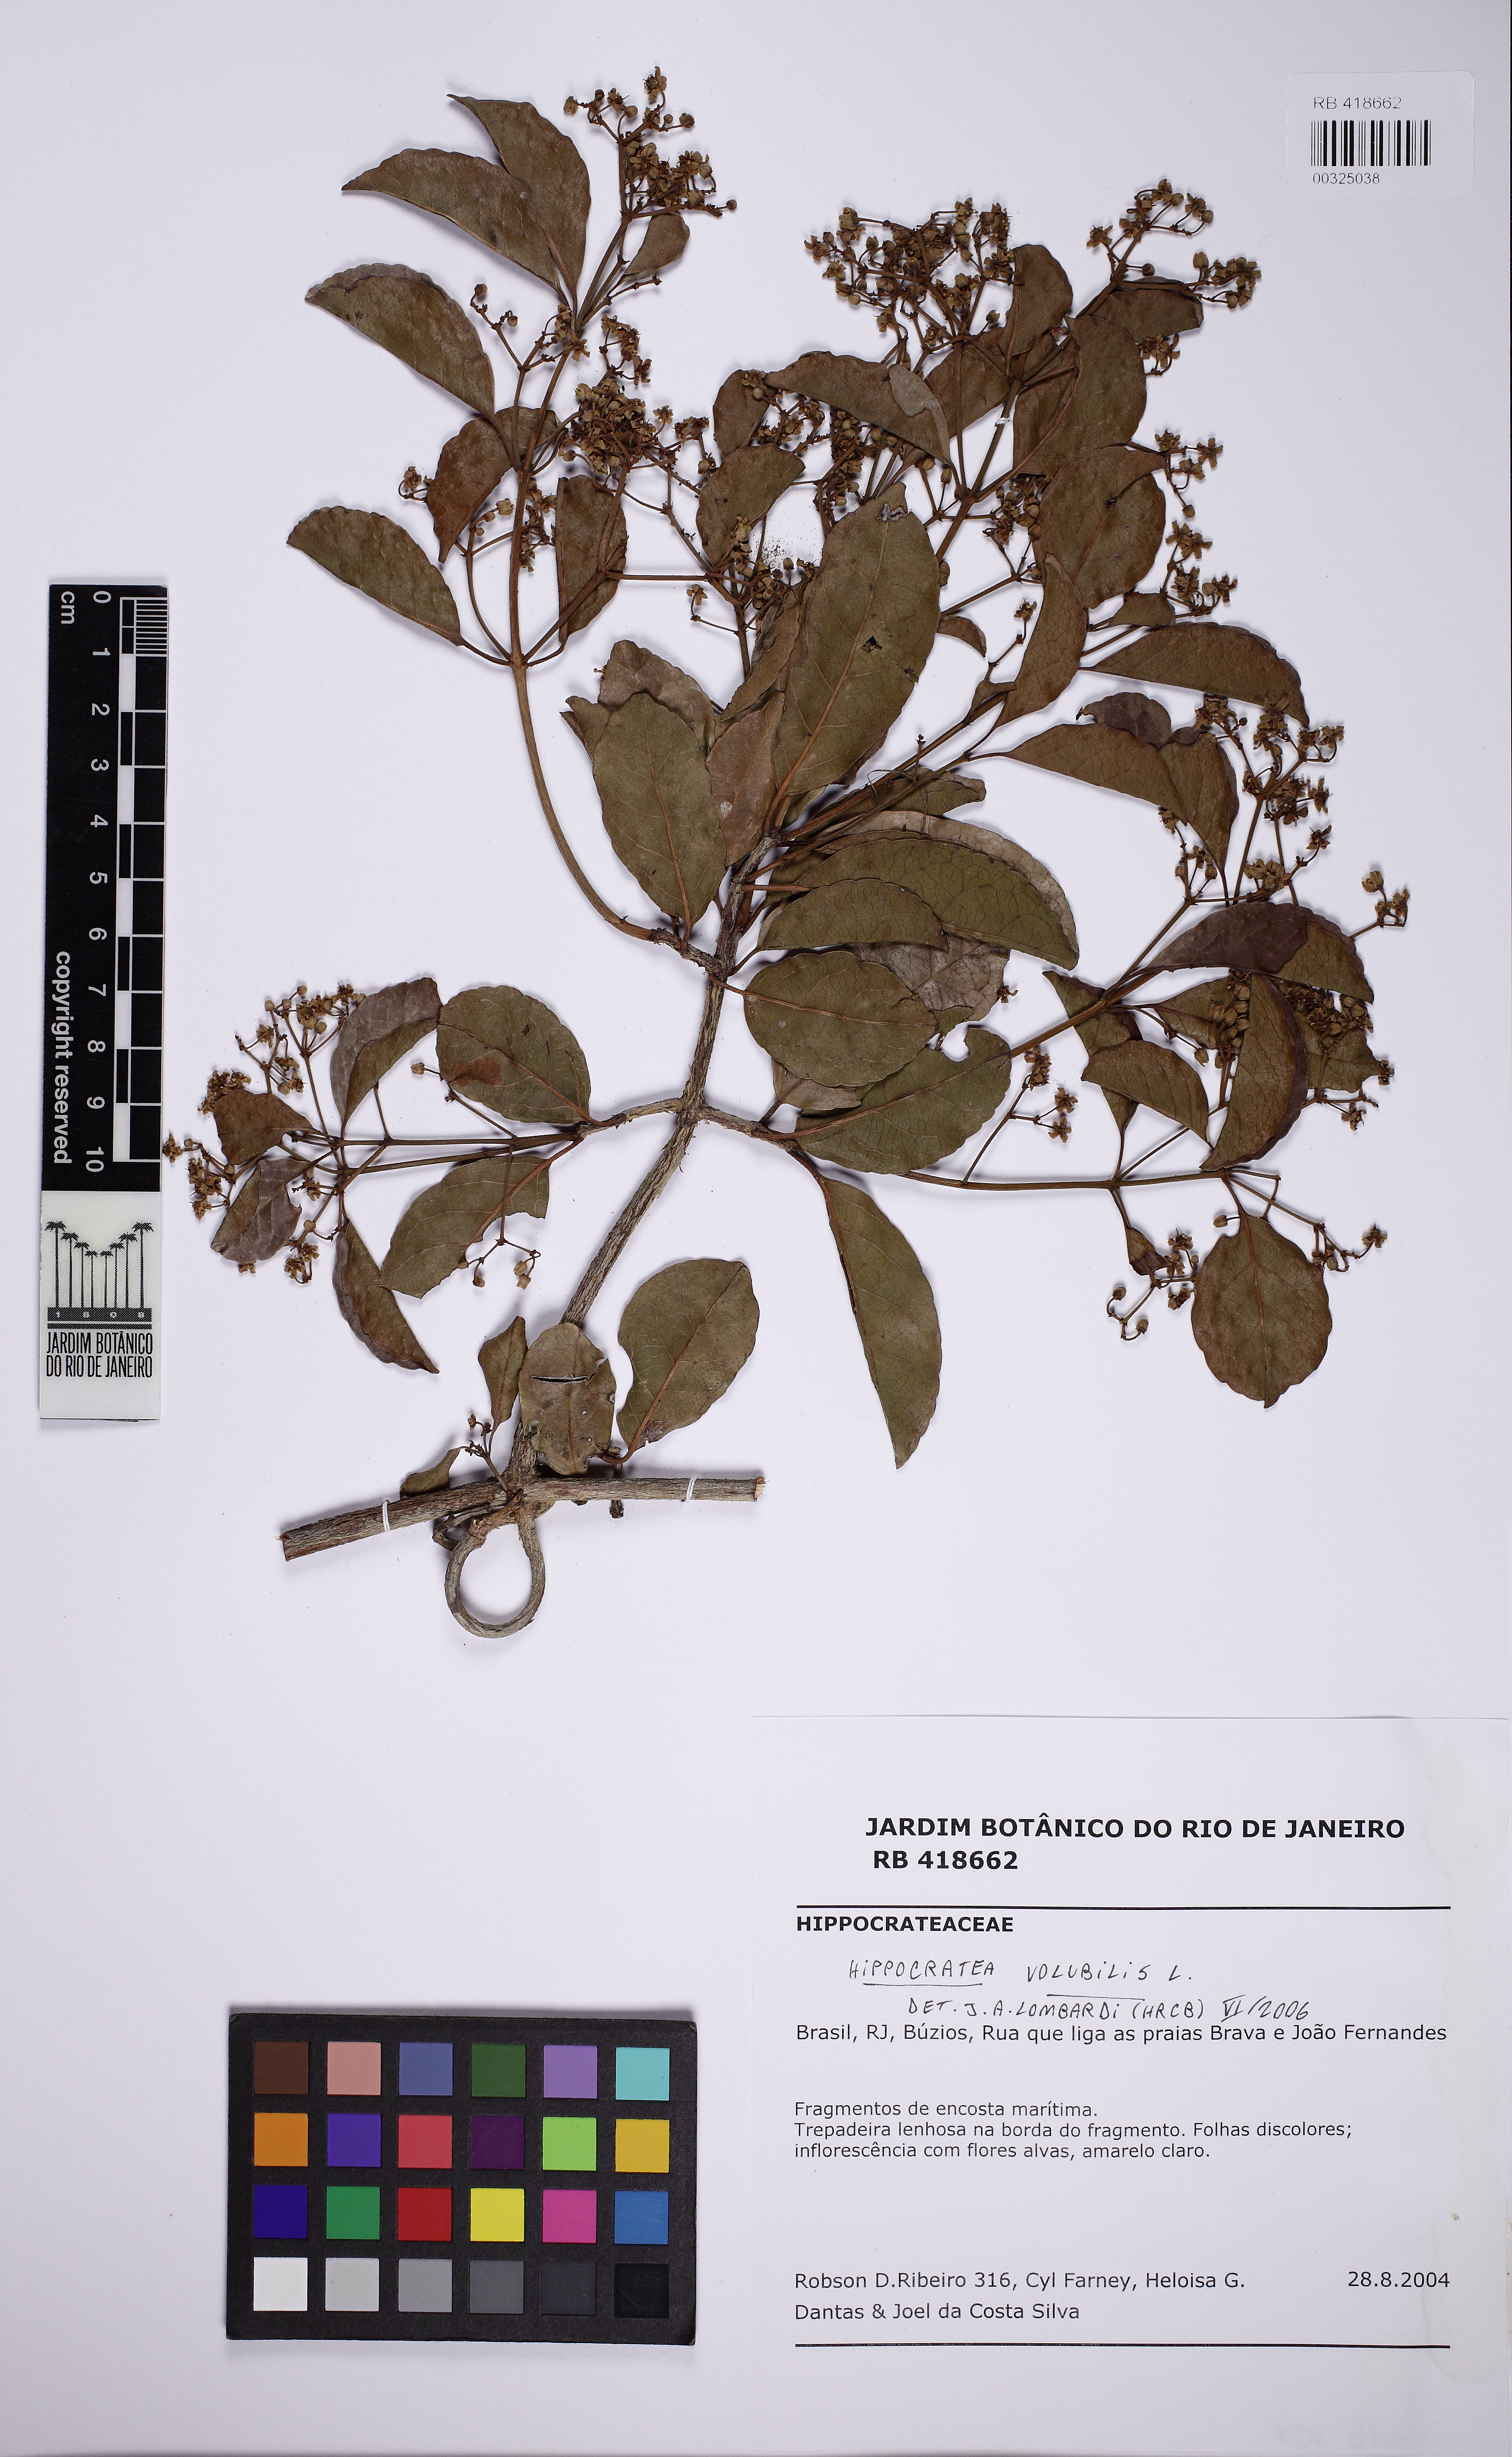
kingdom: Plantae
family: Hippocrateaceae
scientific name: Hippocrateaceae
